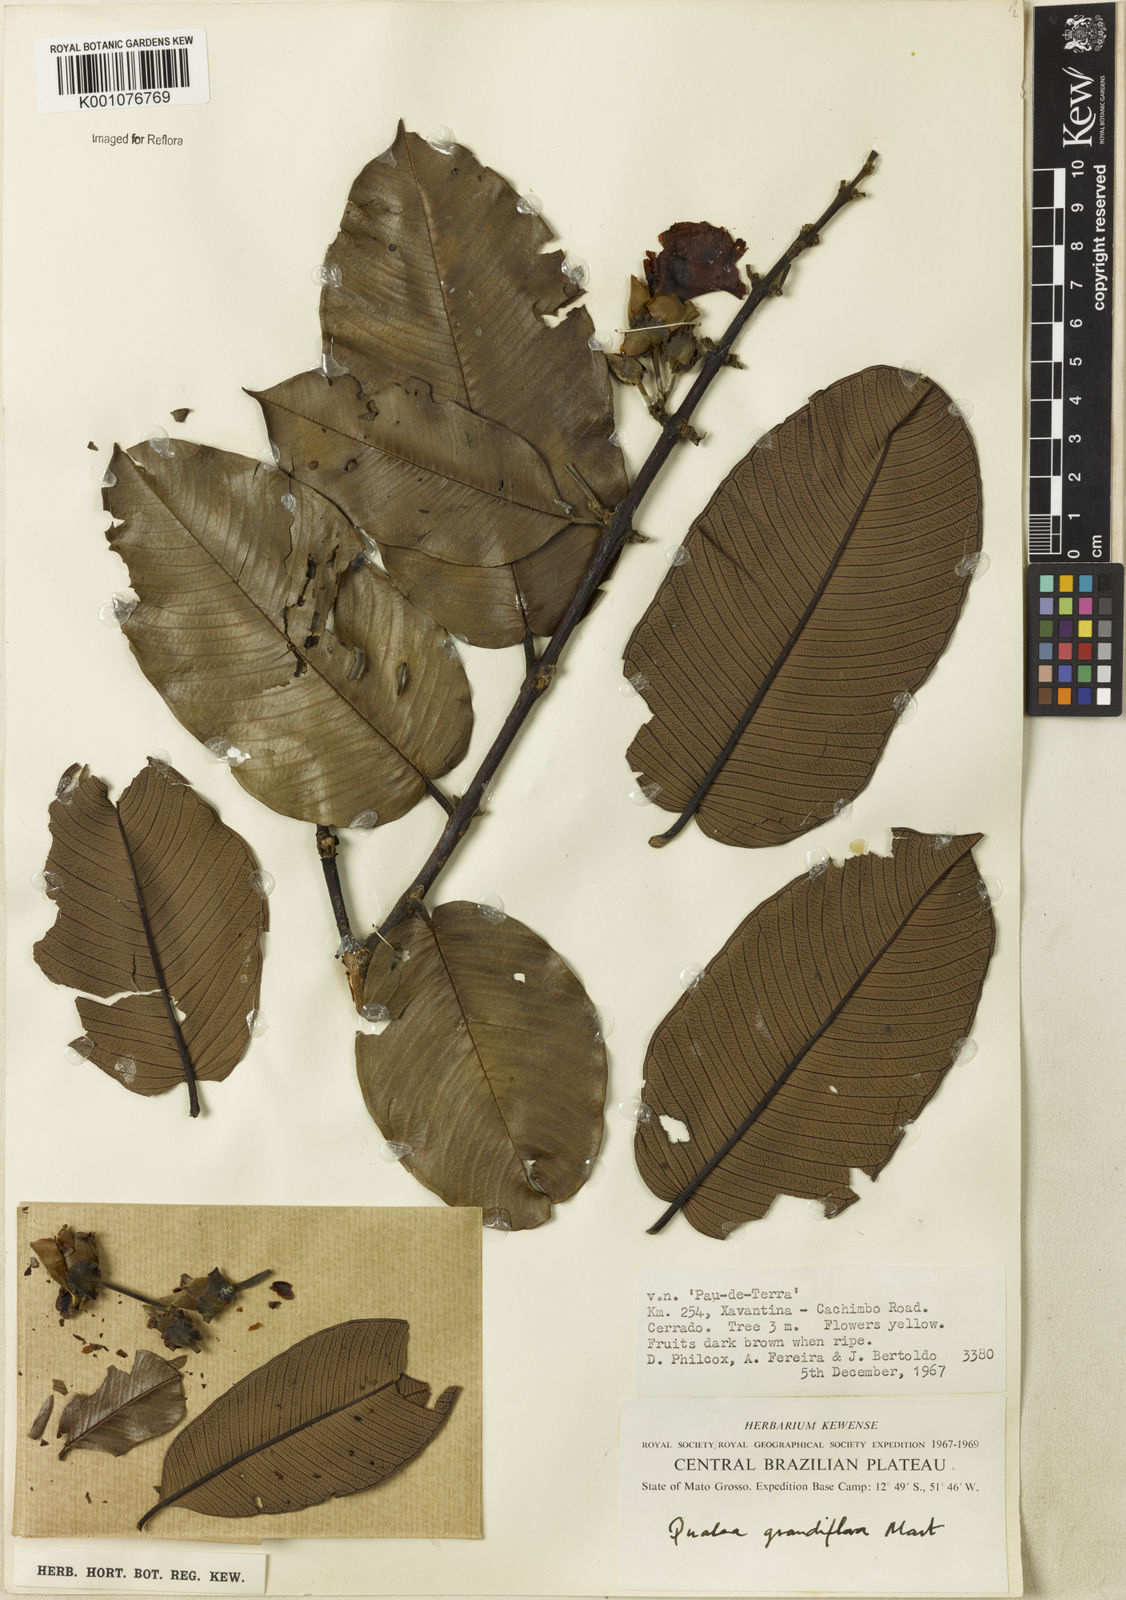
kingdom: Plantae
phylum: Tracheophyta
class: Magnoliopsida
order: Myrtales
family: Vochysiaceae
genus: Qualea
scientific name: Qualea grandiflora
